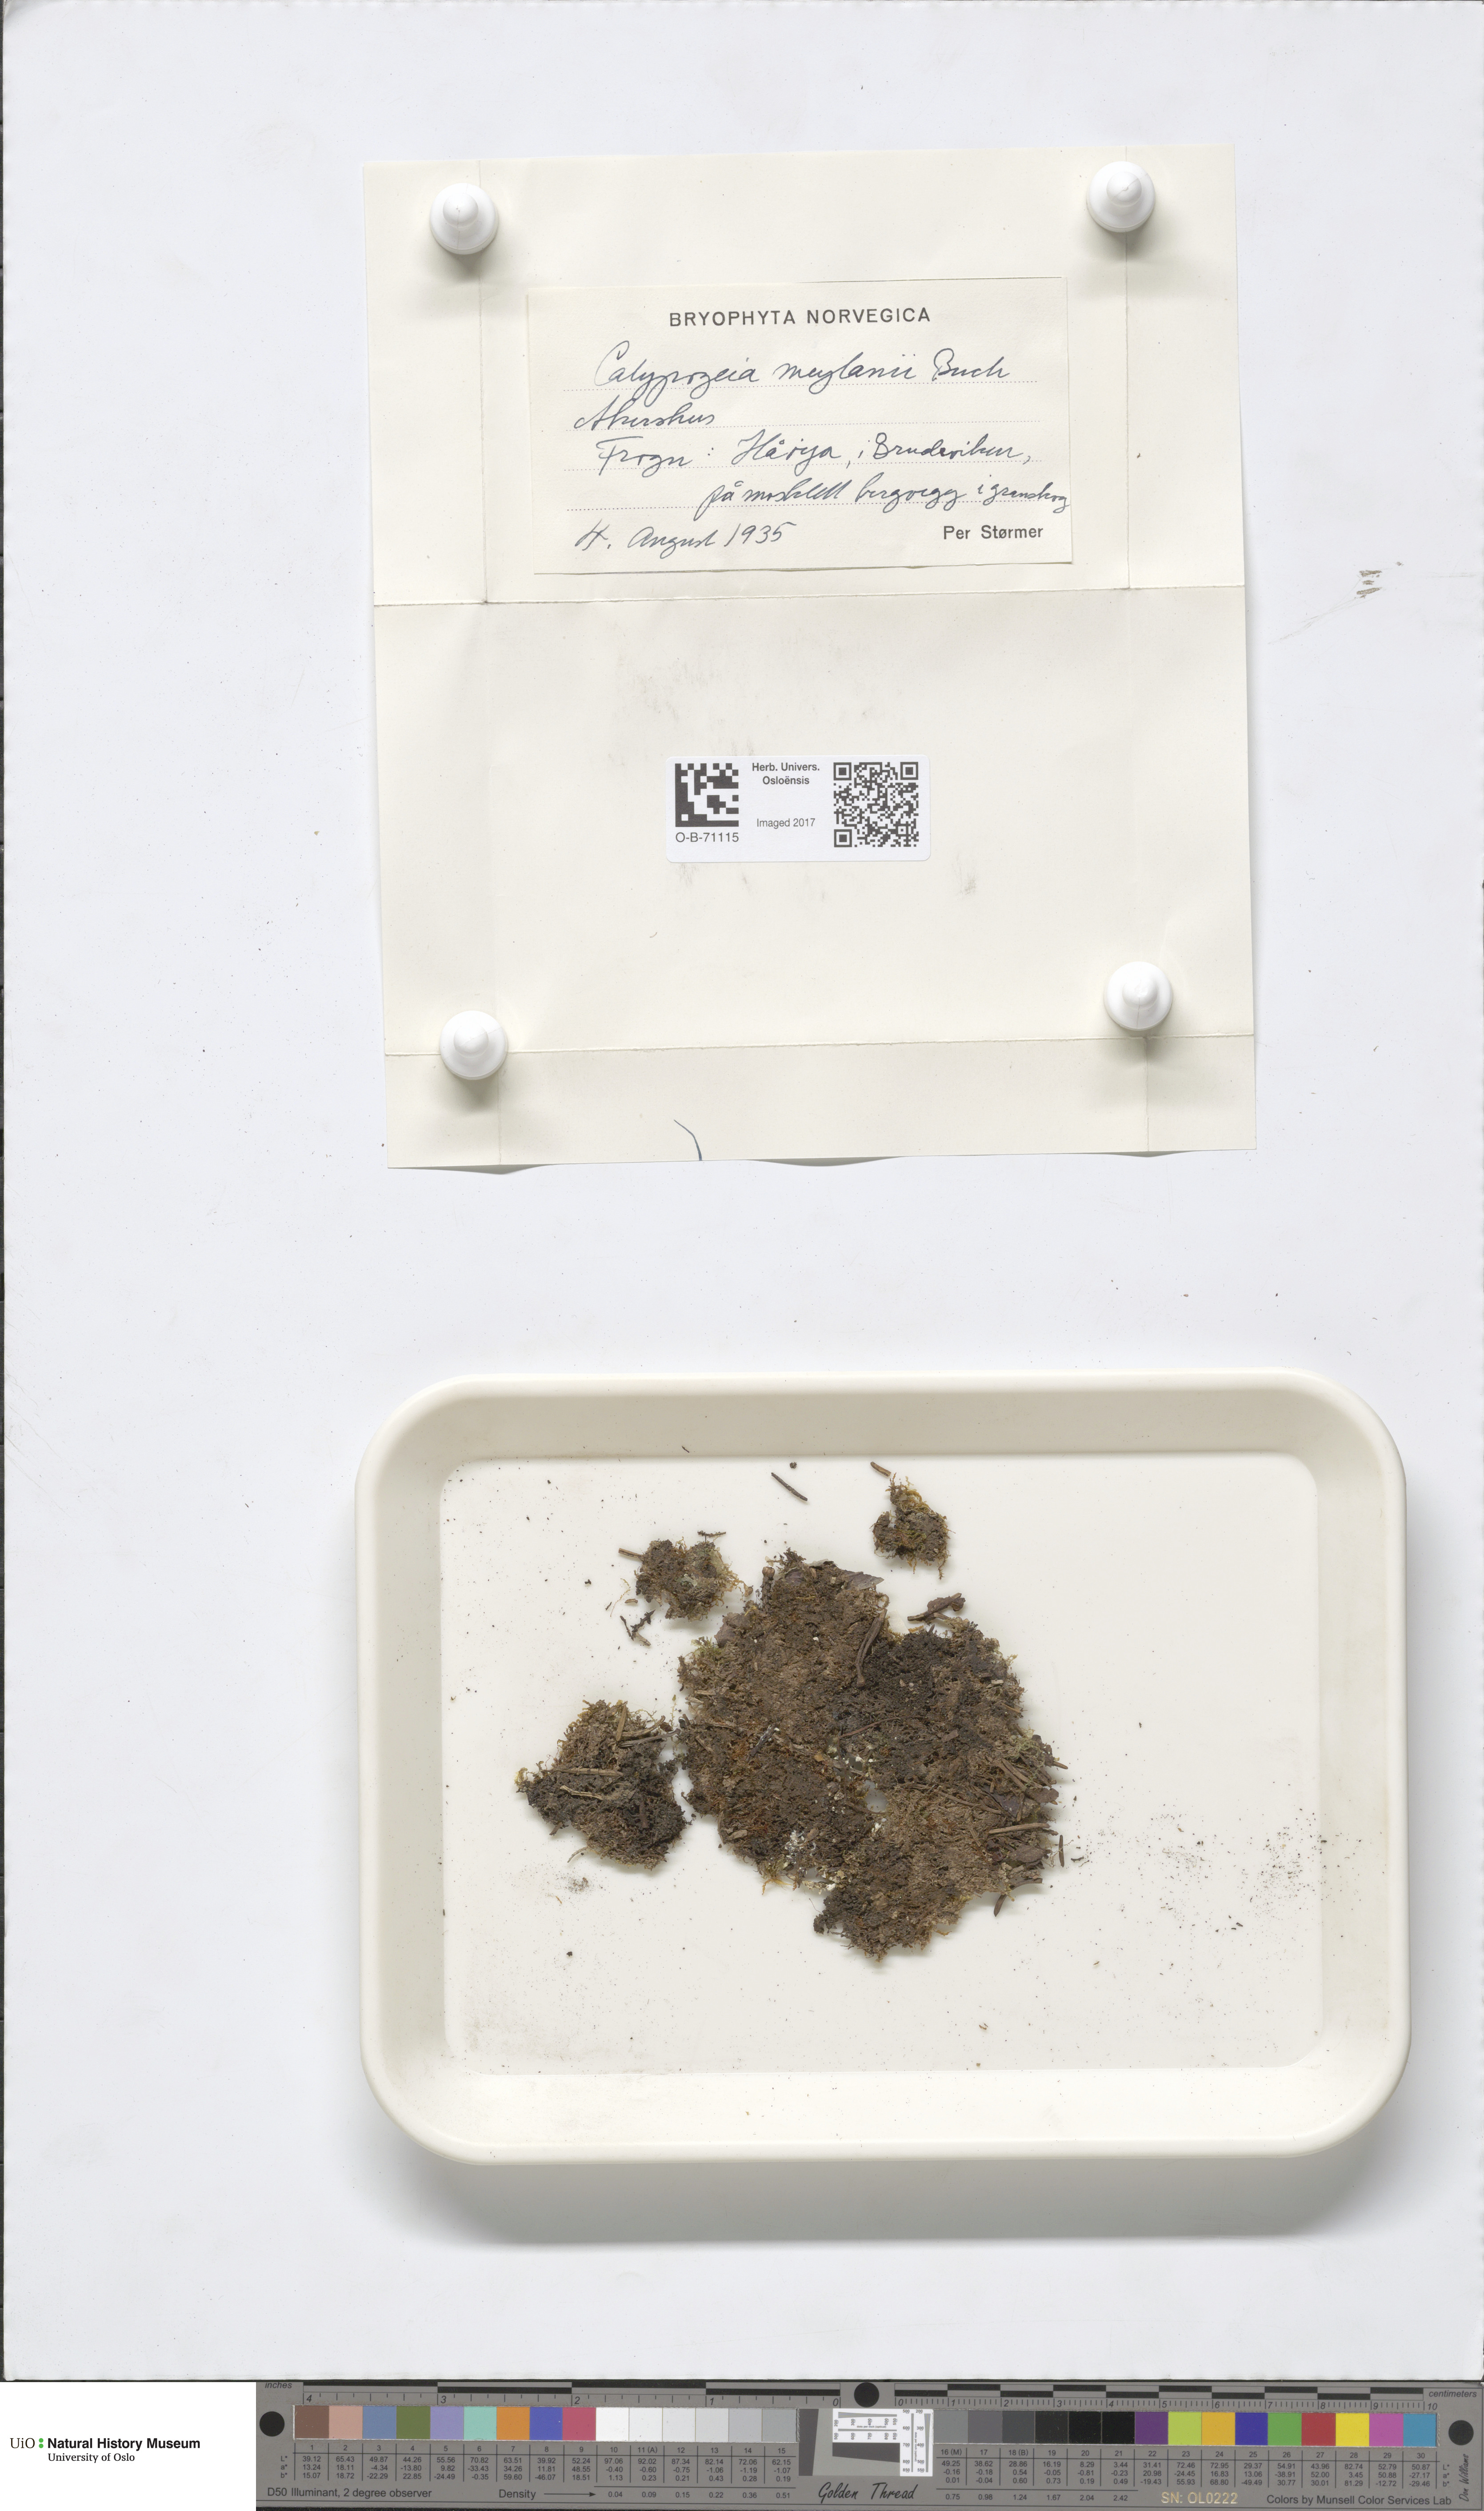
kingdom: Plantae
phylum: Marchantiophyta
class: Jungermanniopsida
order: Jungermanniales
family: Calypogeiaceae
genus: Calypogeia
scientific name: Calypogeia integristipula
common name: Meylan s pouchwort
